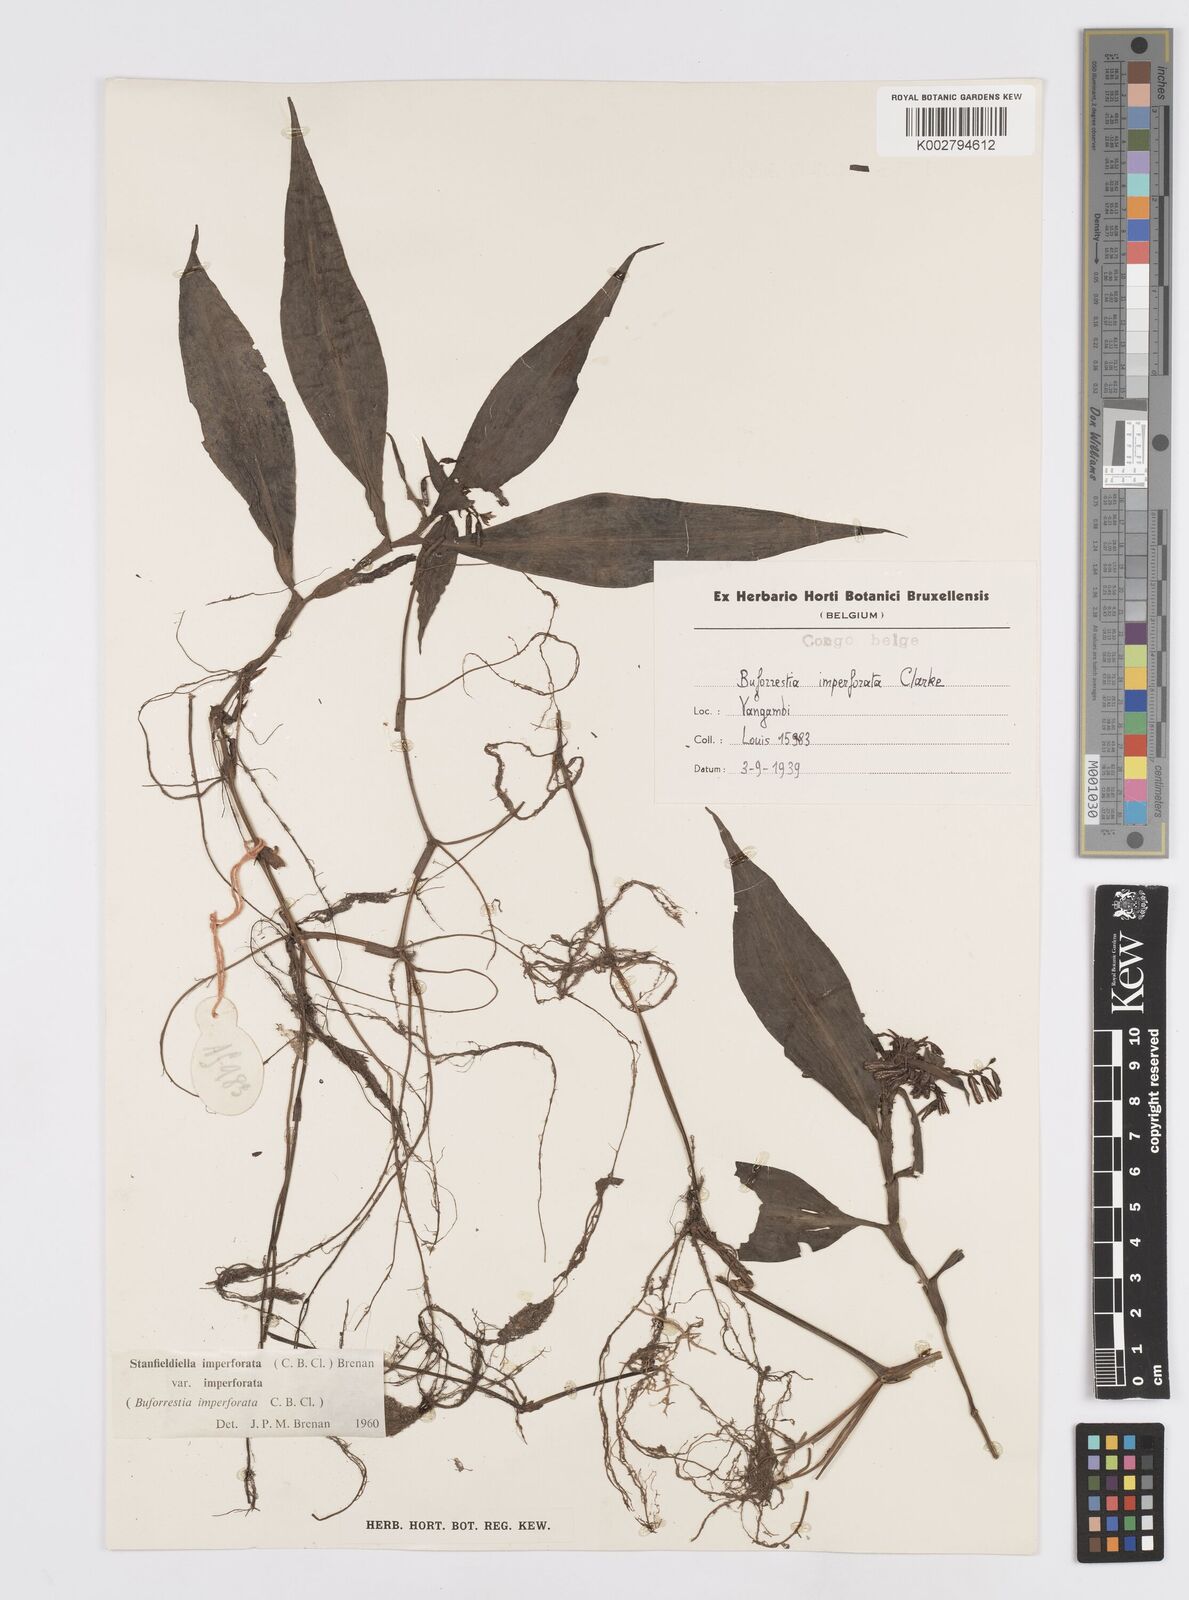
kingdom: Plantae
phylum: Tracheophyta
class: Liliopsida
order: Commelinales
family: Commelinaceae
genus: Stanfieldiella
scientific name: Stanfieldiella imperforata
